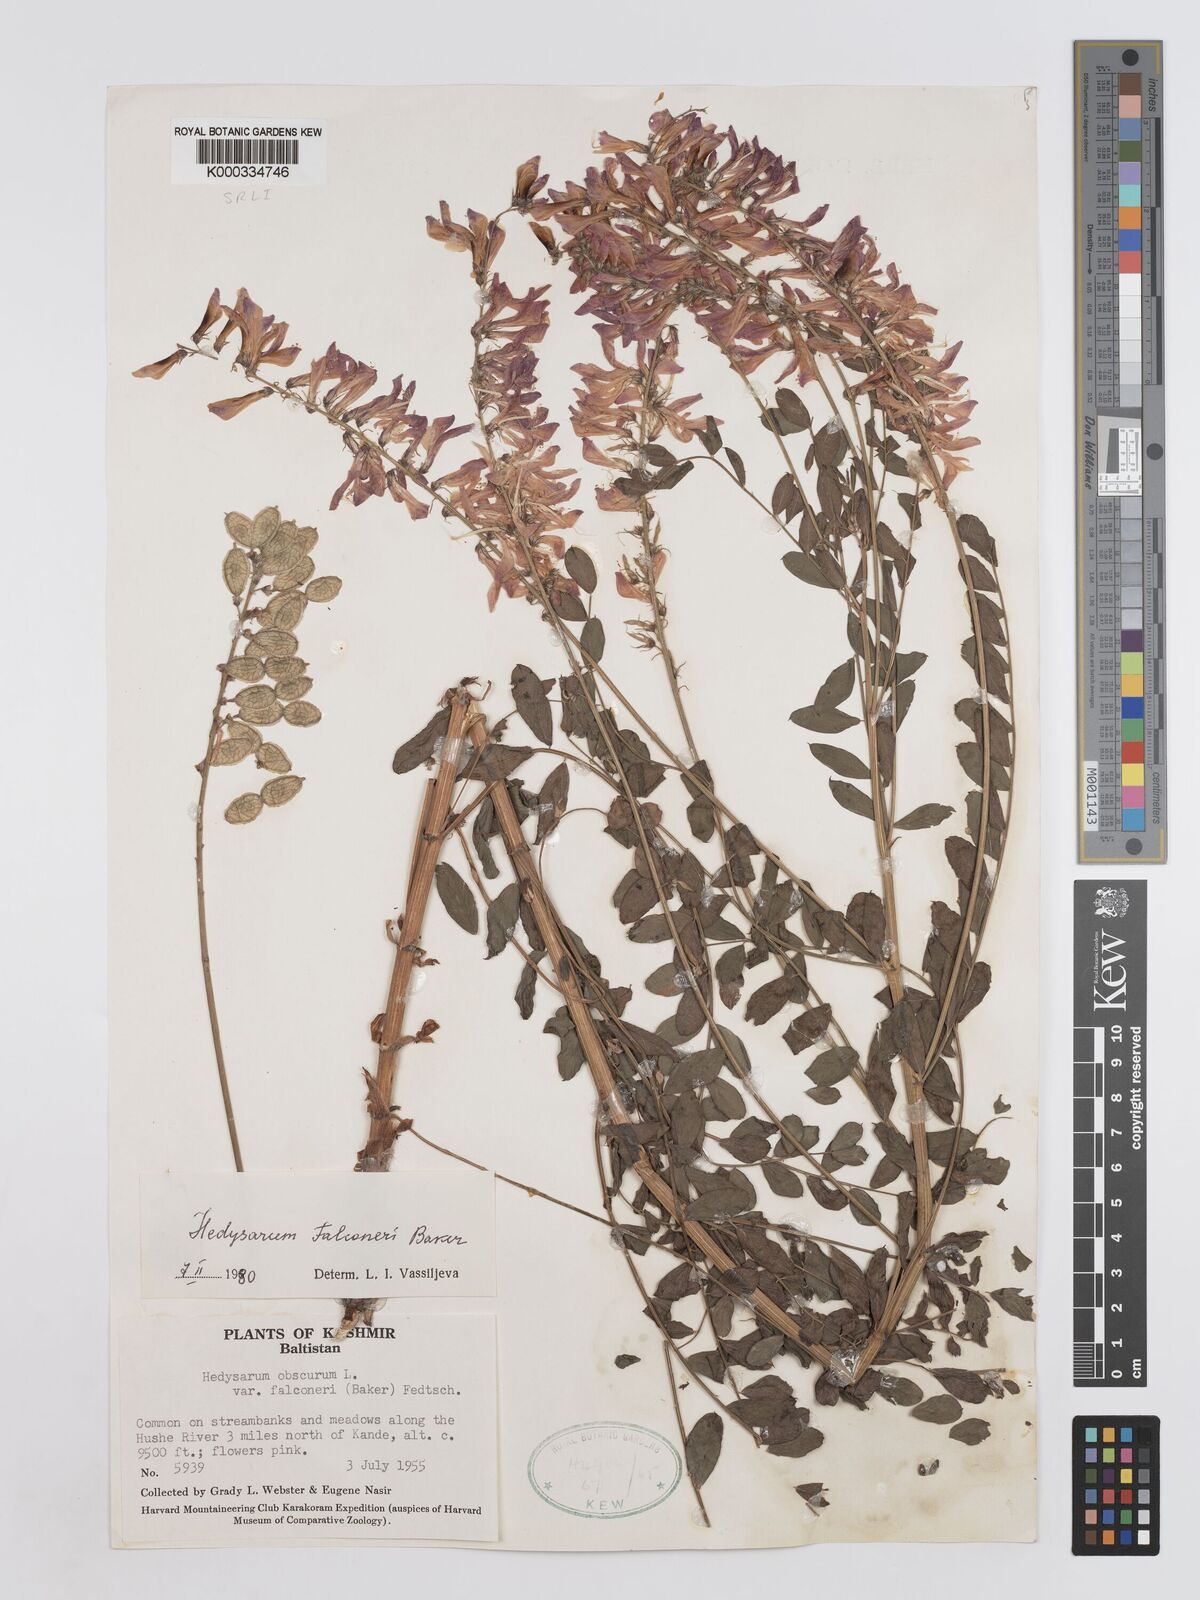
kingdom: Plantae
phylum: Tracheophyta
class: Magnoliopsida
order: Fabales
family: Fabaceae
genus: Hedysarum
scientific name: Hedysarum falconeri
